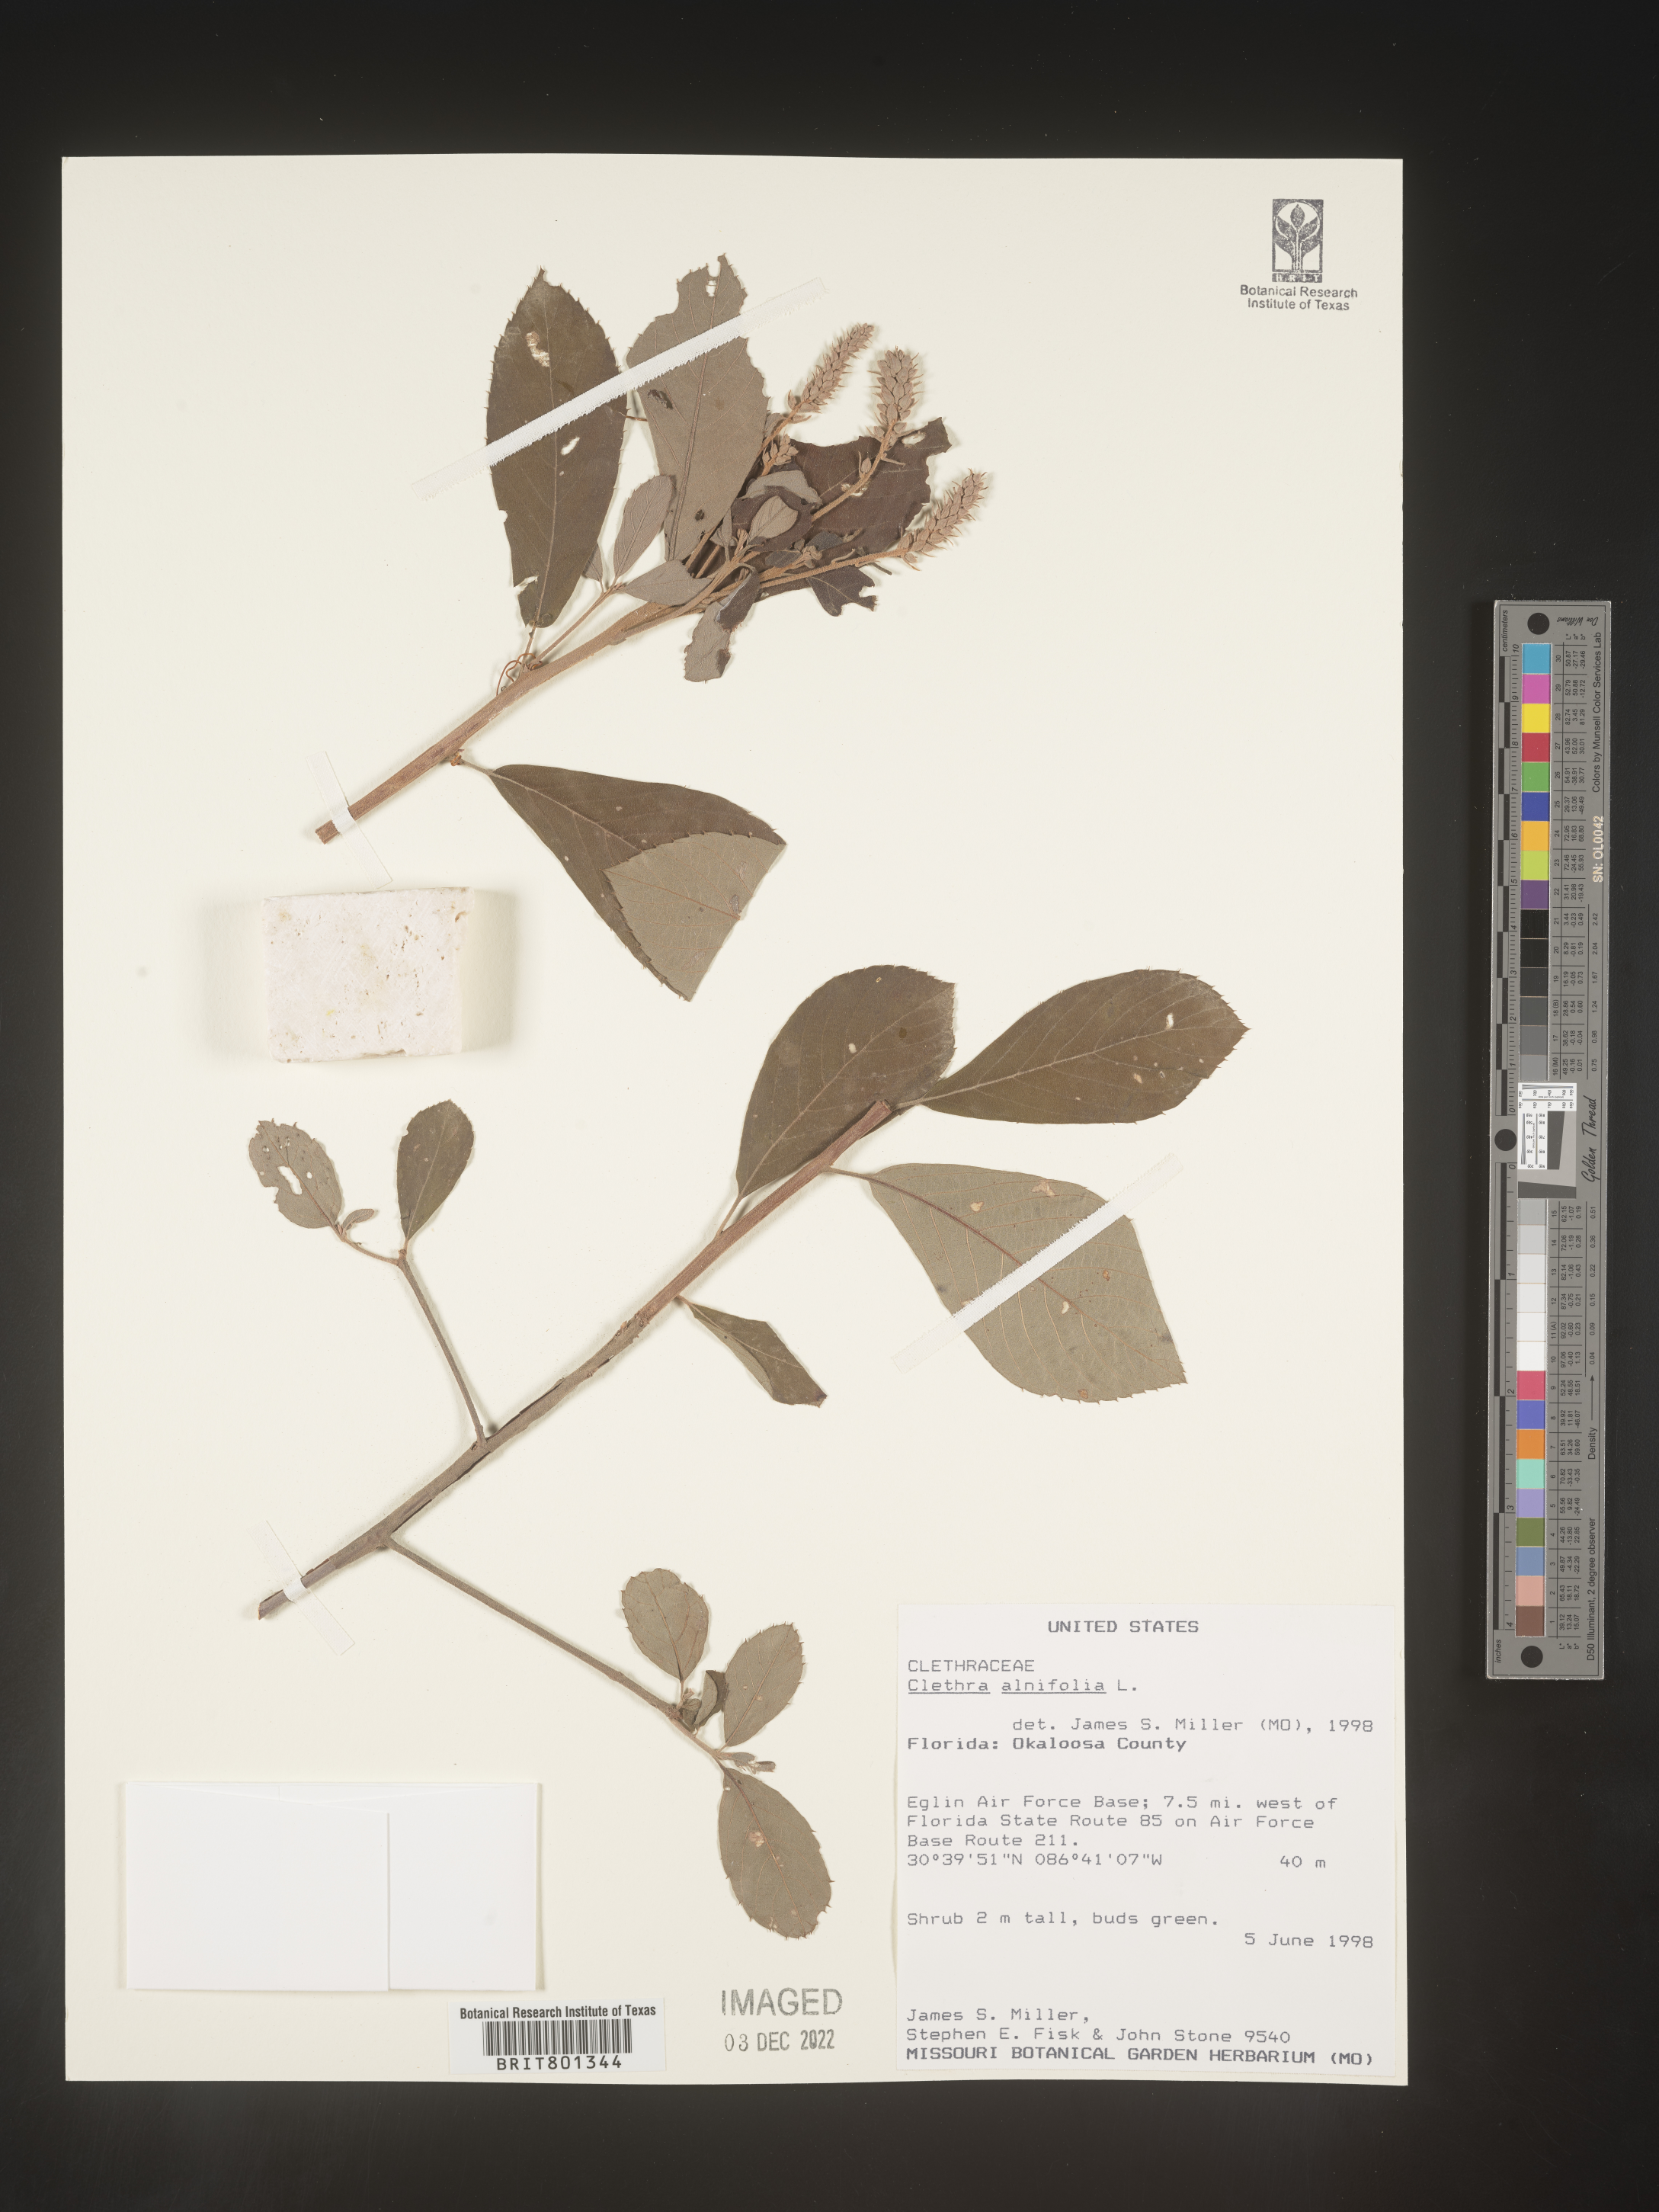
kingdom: Plantae
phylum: Tracheophyta
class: Magnoliopsida
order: Ericales
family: Clethraceae
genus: Clethra
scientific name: Clethra alnifolia
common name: Sweet pepperbush
